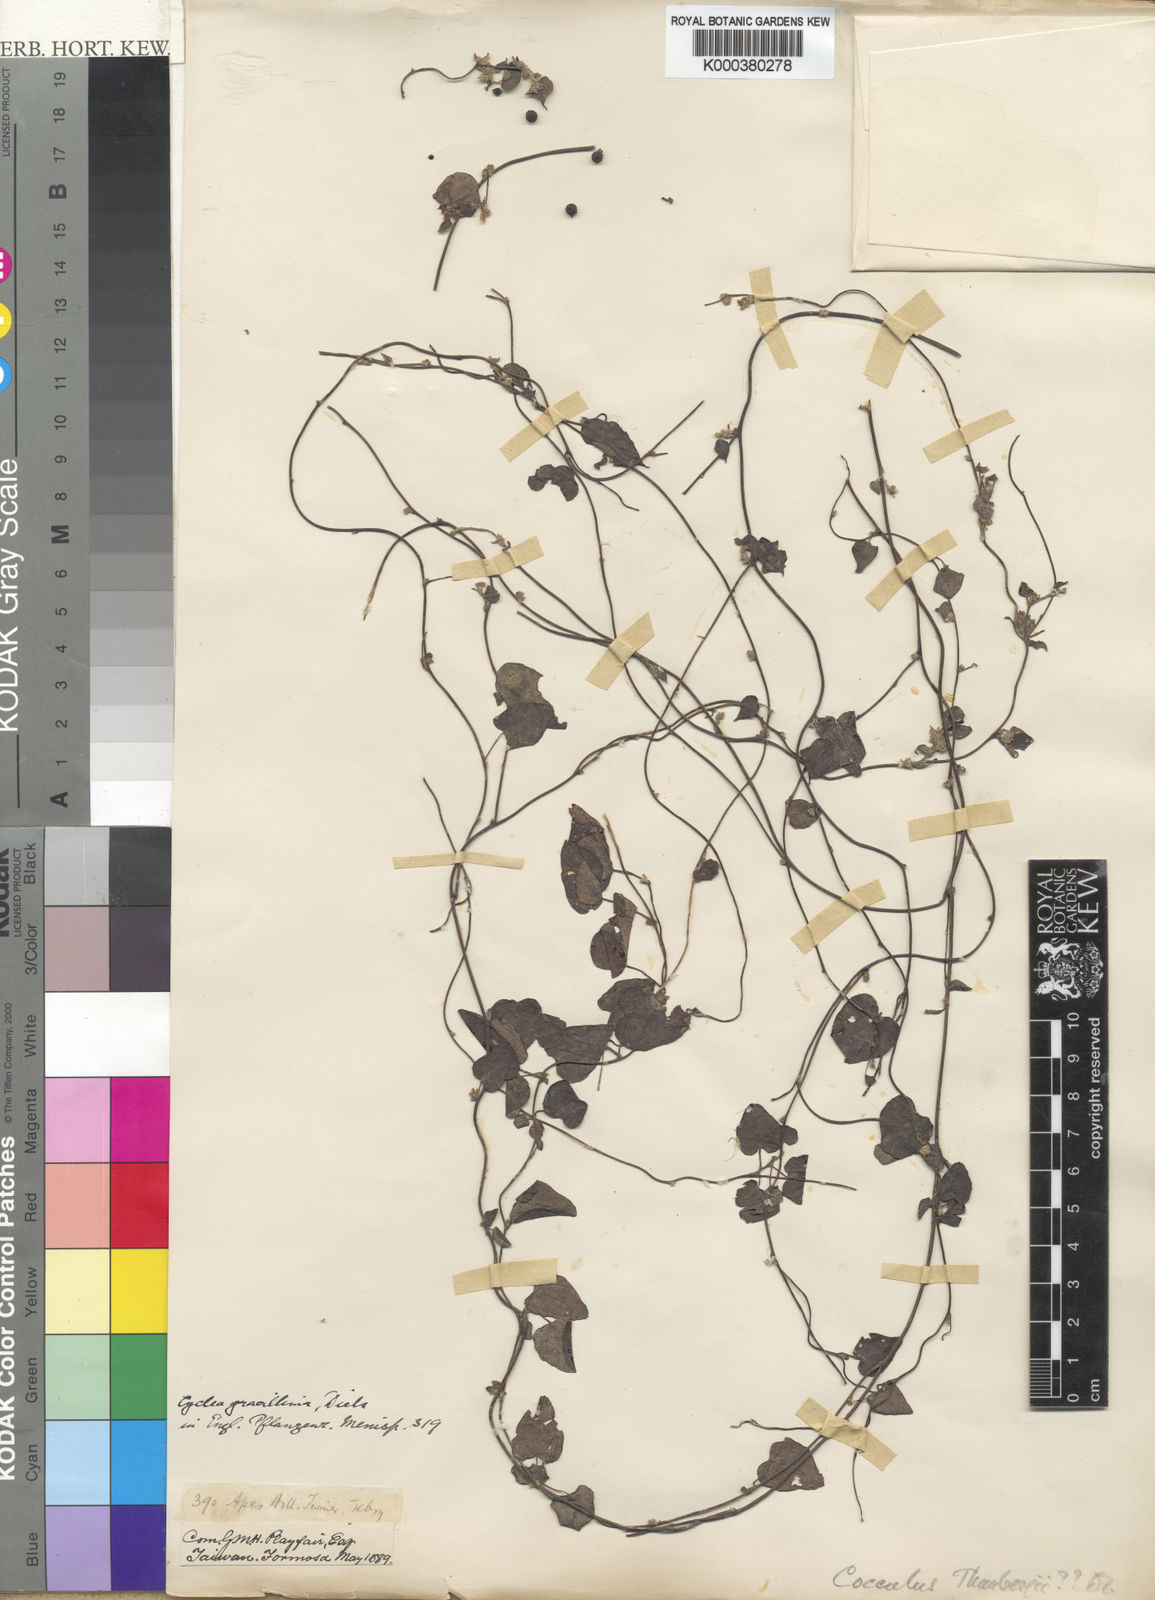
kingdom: Plantae
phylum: Tracheophyta
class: Magnoliopsida
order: Ranunculales
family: Menispermaceae
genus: Cyclea
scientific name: Cyclea gracillima
